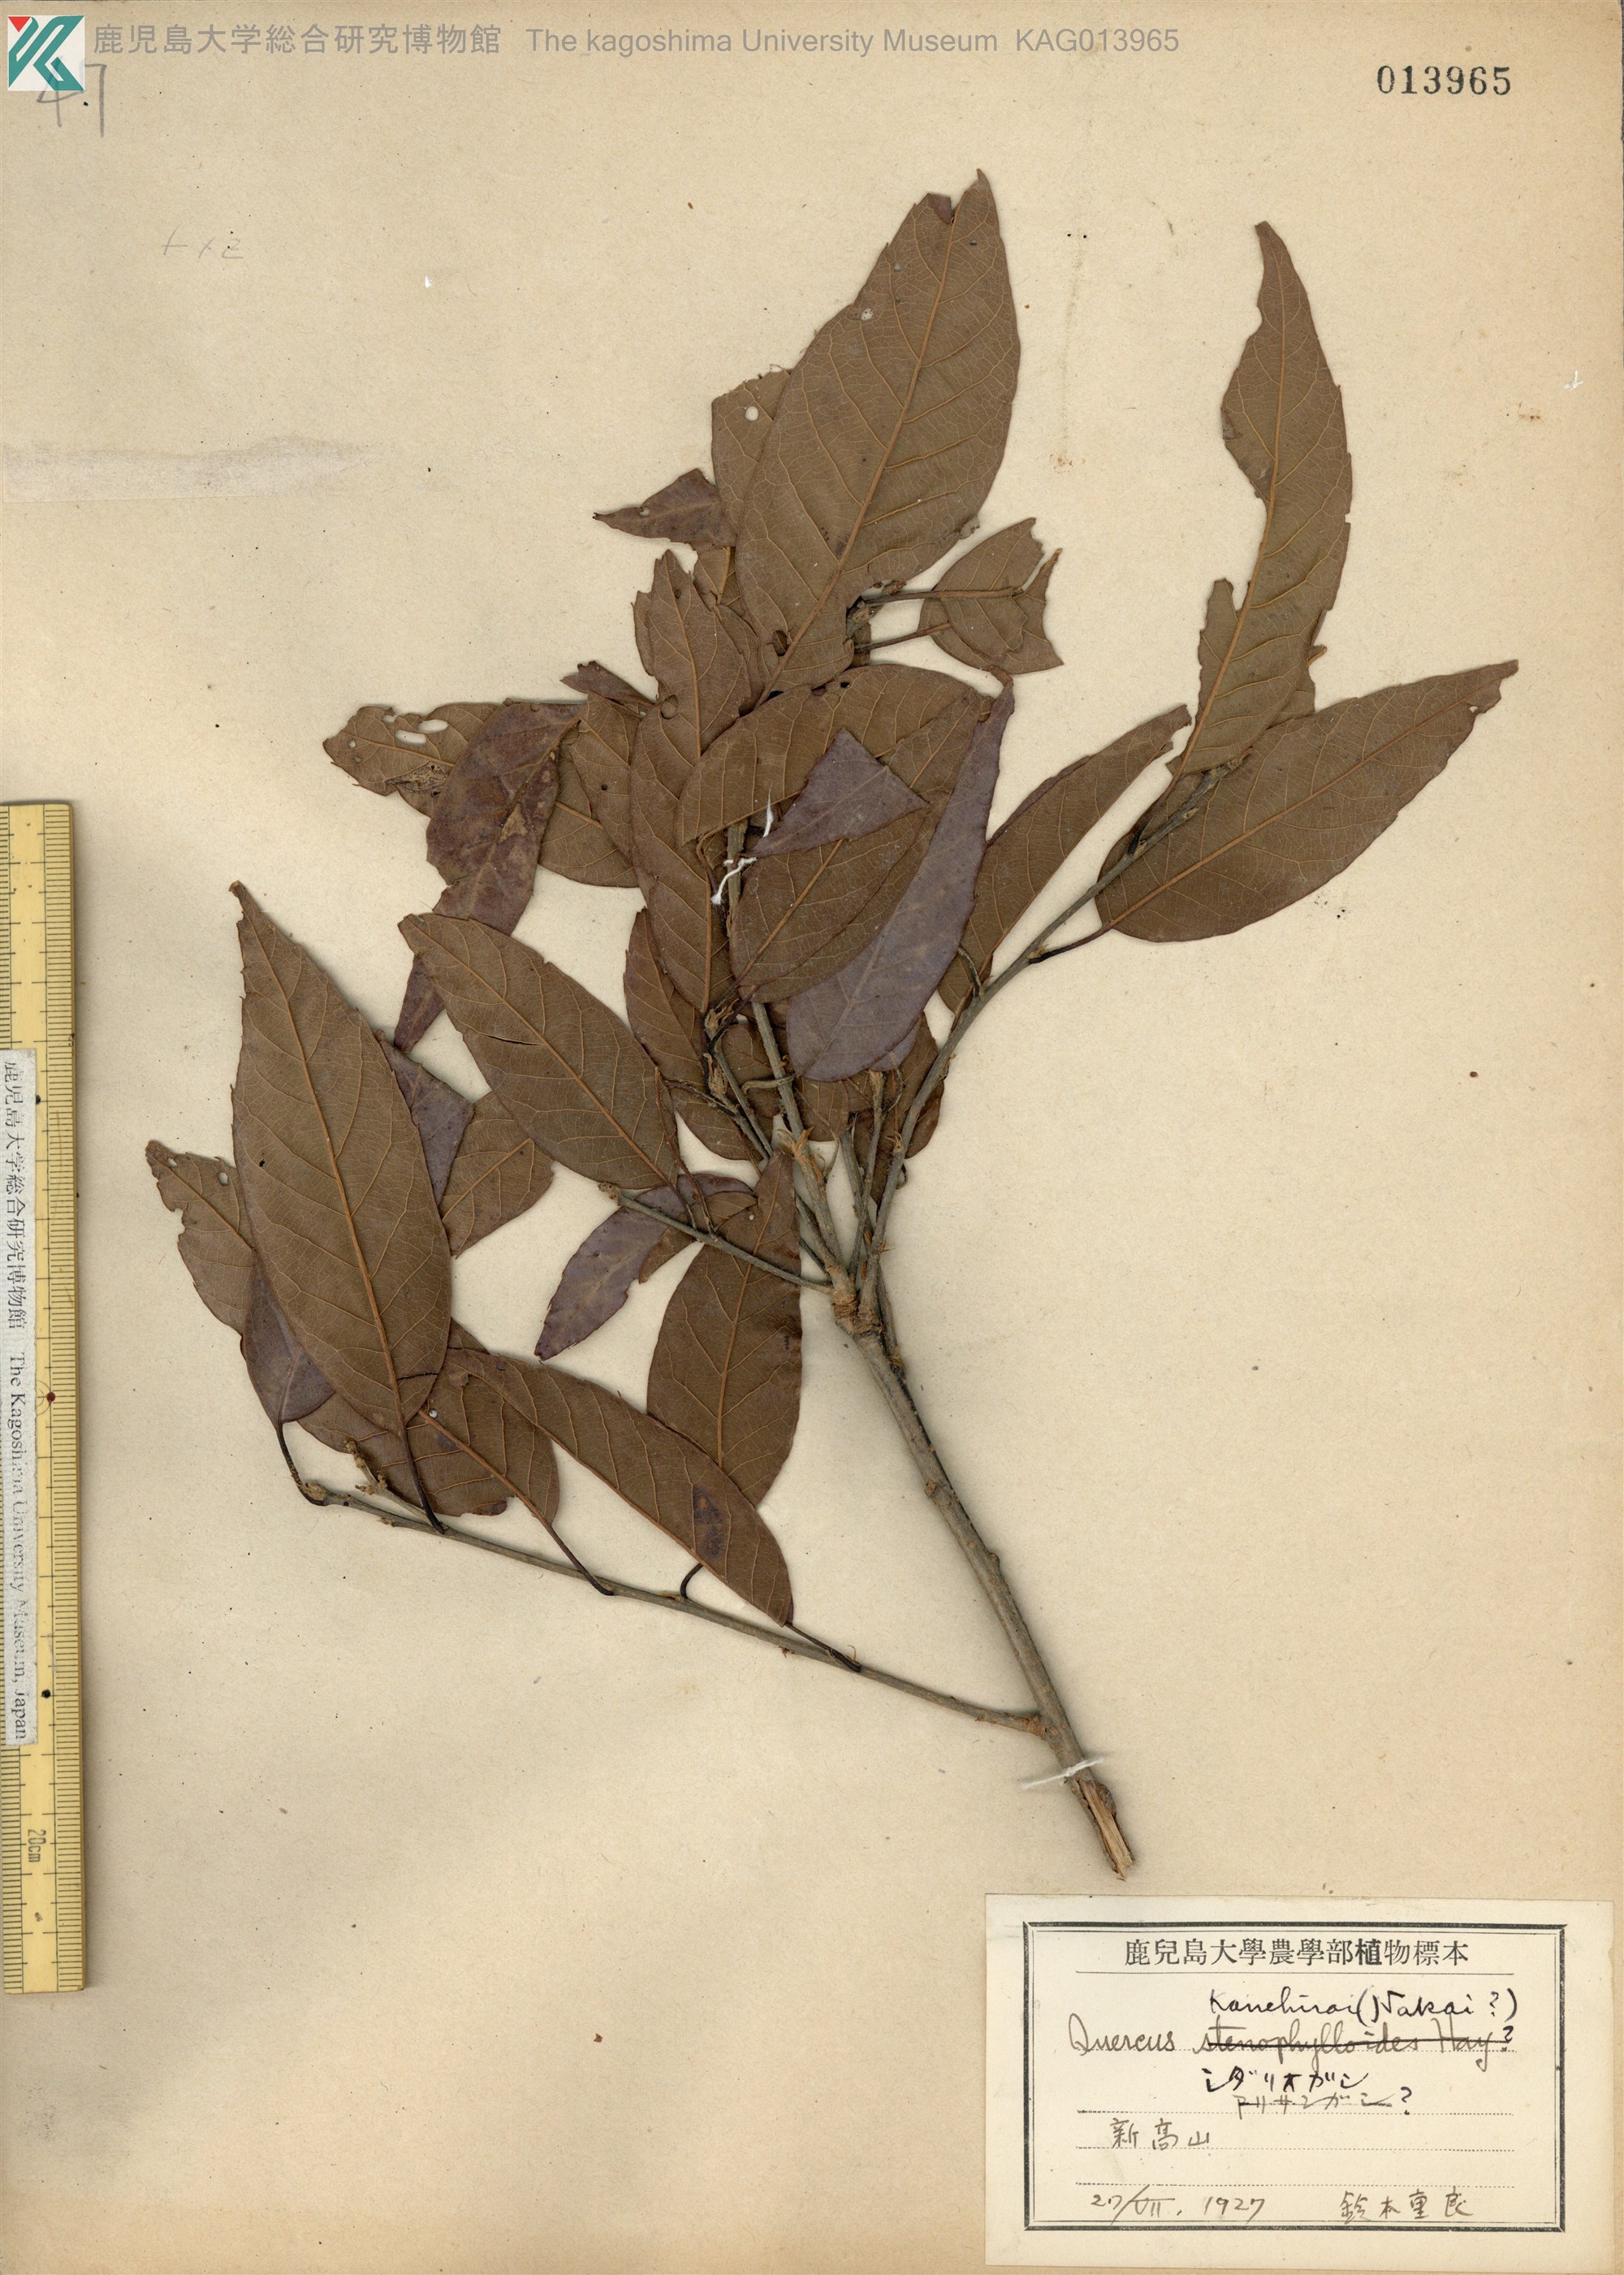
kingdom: Plantae
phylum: Tracheophyta
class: Magnoliopsida
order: Fagales
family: Fagaceae
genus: Quercus
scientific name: Quercus longinux
